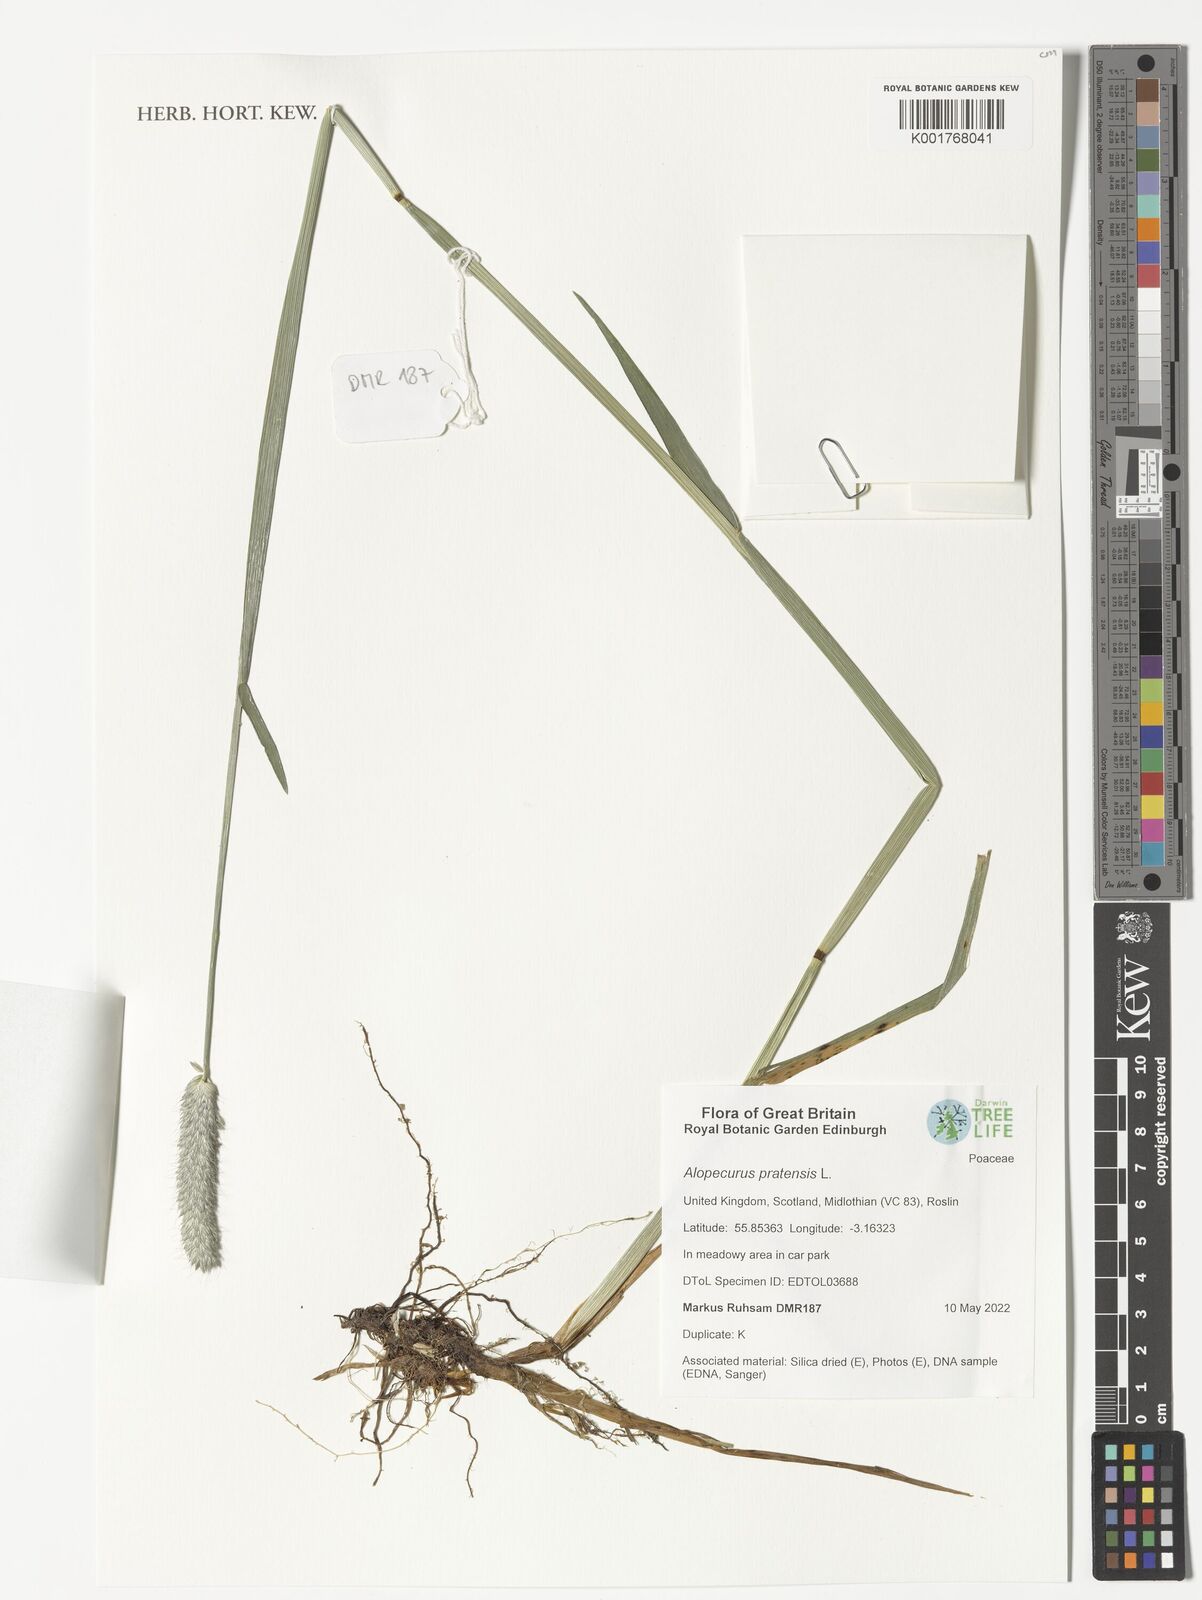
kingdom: Plantae
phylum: Tracheophyta
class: Liliopsida
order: Poales
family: Poaceae
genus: Alopecurus
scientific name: Alopecurus pratensis
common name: Meadow foxtail
